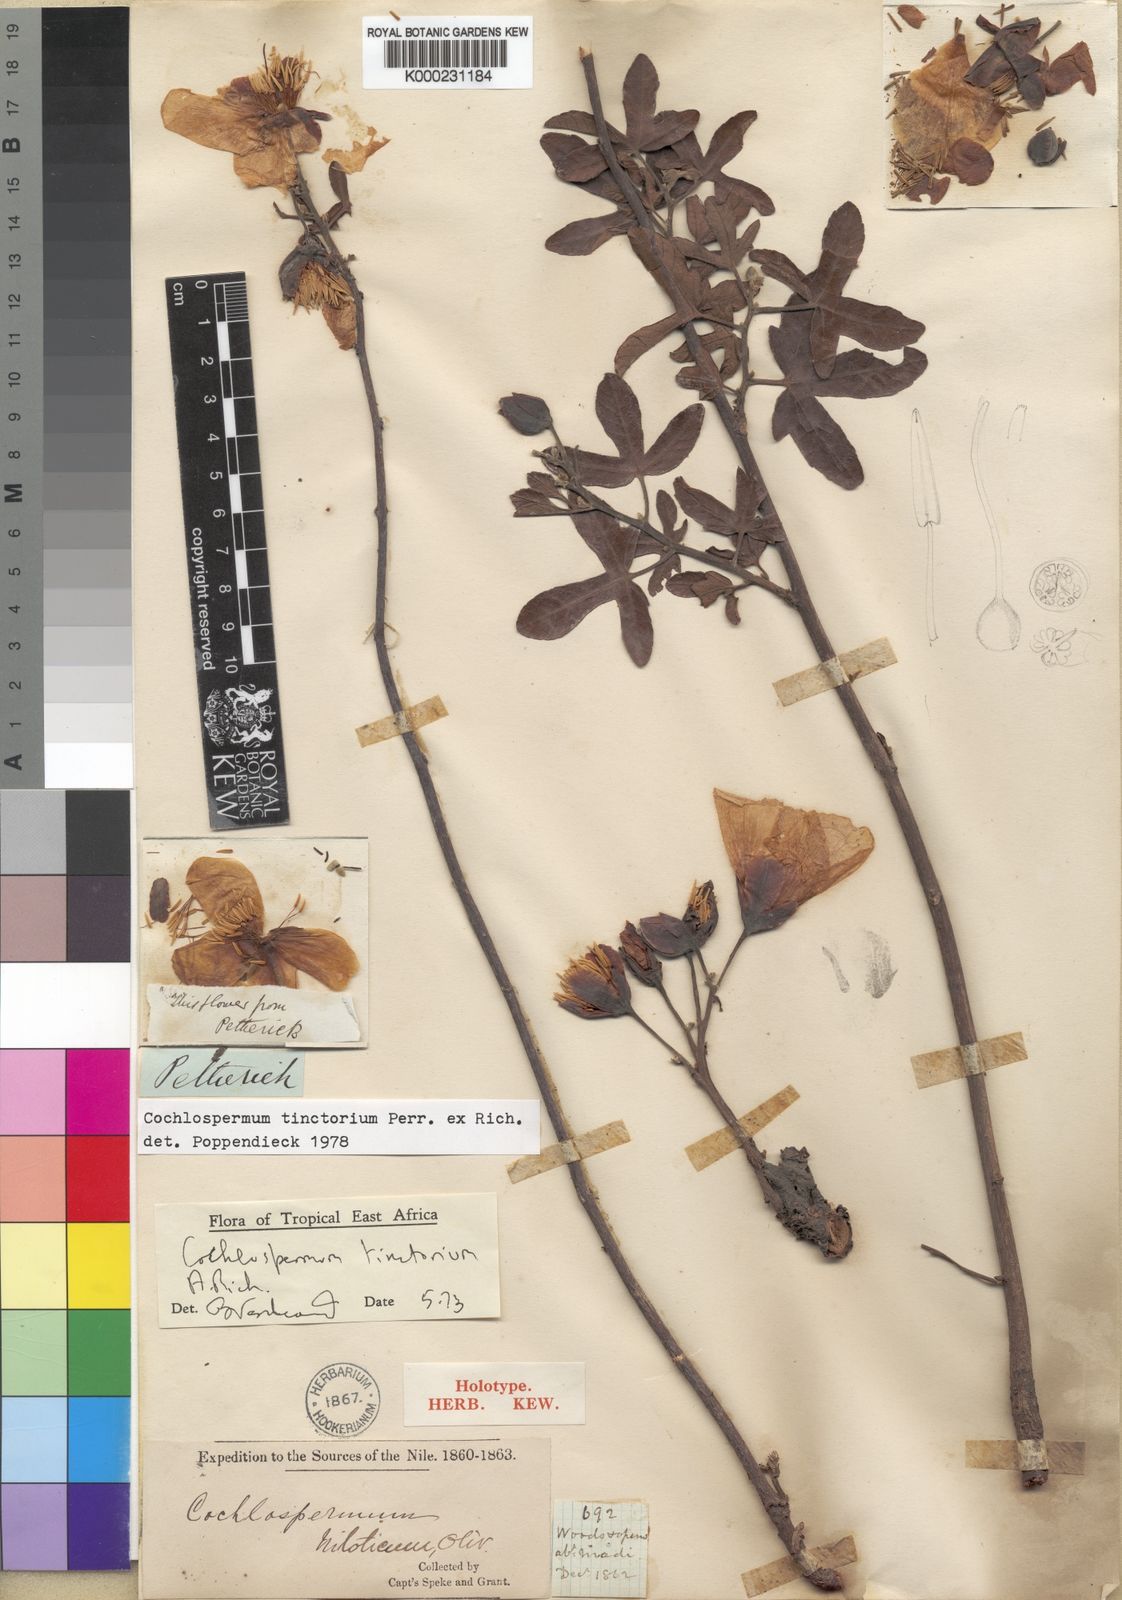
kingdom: Plantae
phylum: Tracheophyta
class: Magnoliopsida
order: Malvales
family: Cochlospermaceae
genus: Cochlospermum
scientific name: Cochlospermum tinctorium
